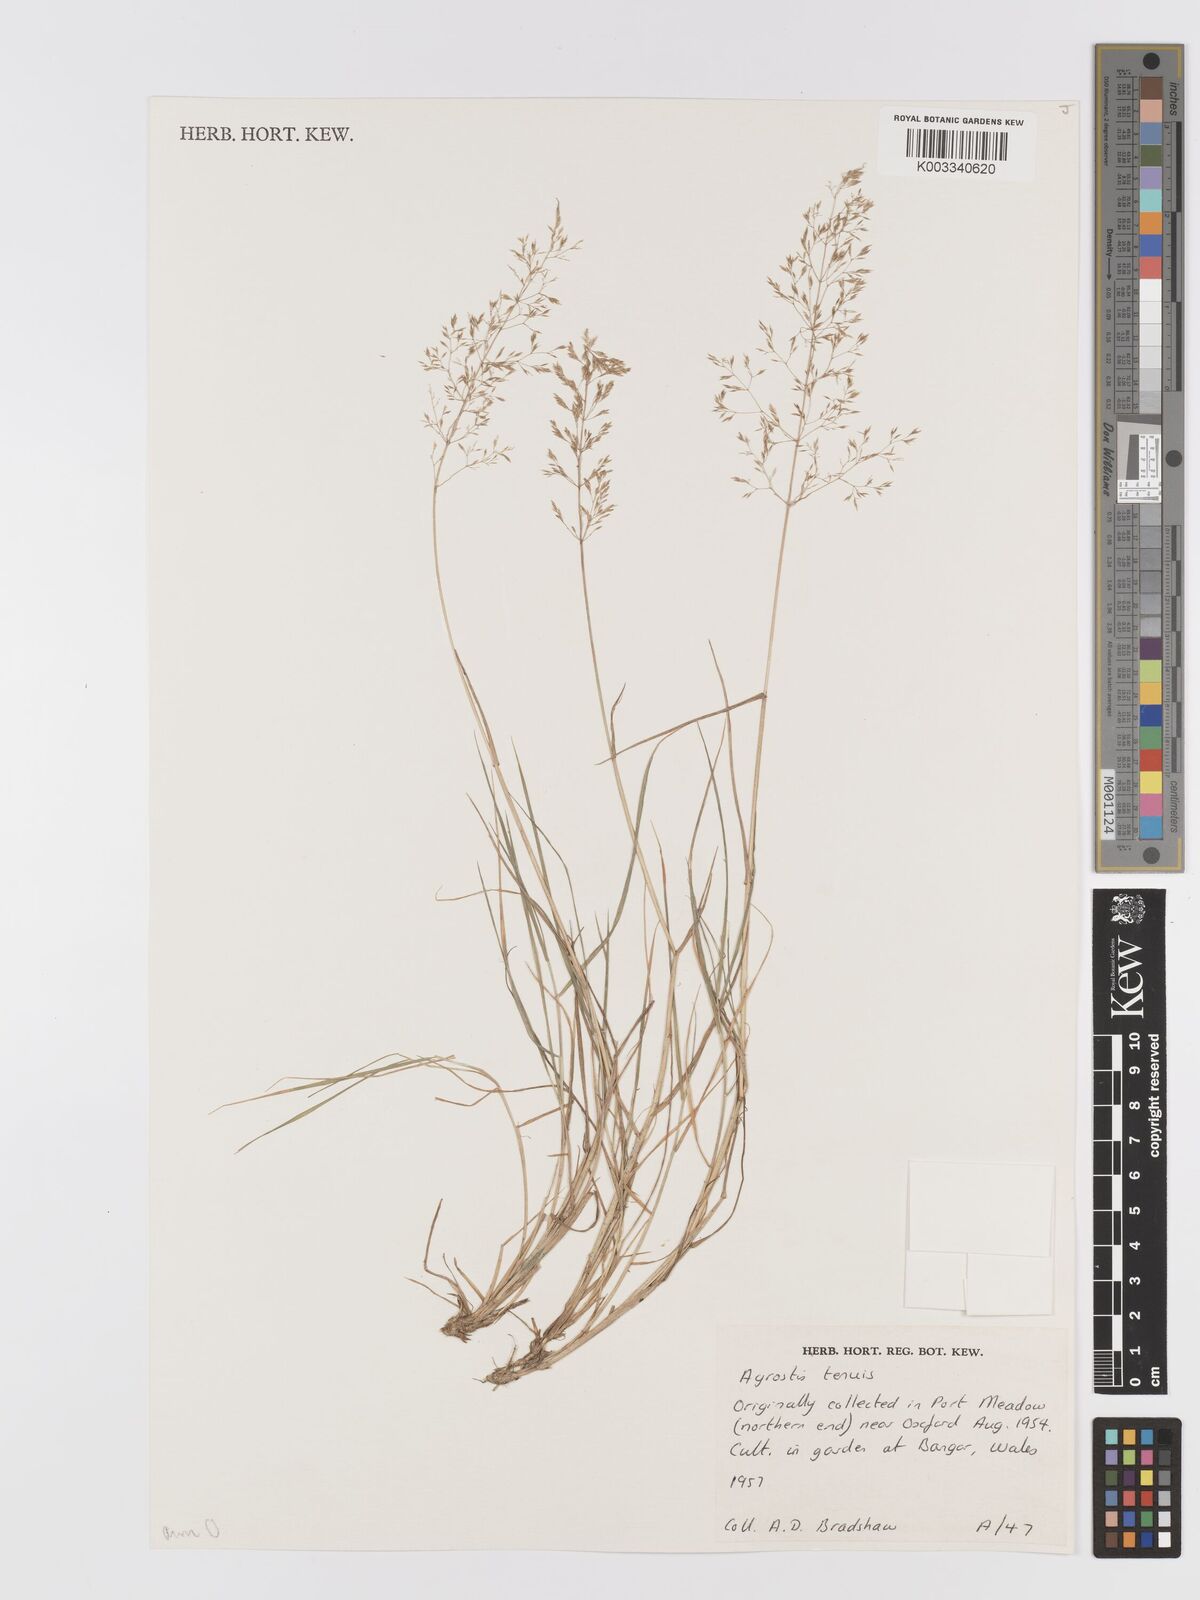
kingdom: Plantae
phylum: Tracheophyta
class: Liliopsida
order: Poales
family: Poaceae
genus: Agrostis
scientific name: Agrostis capillaris
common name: Colonial bentgrass
